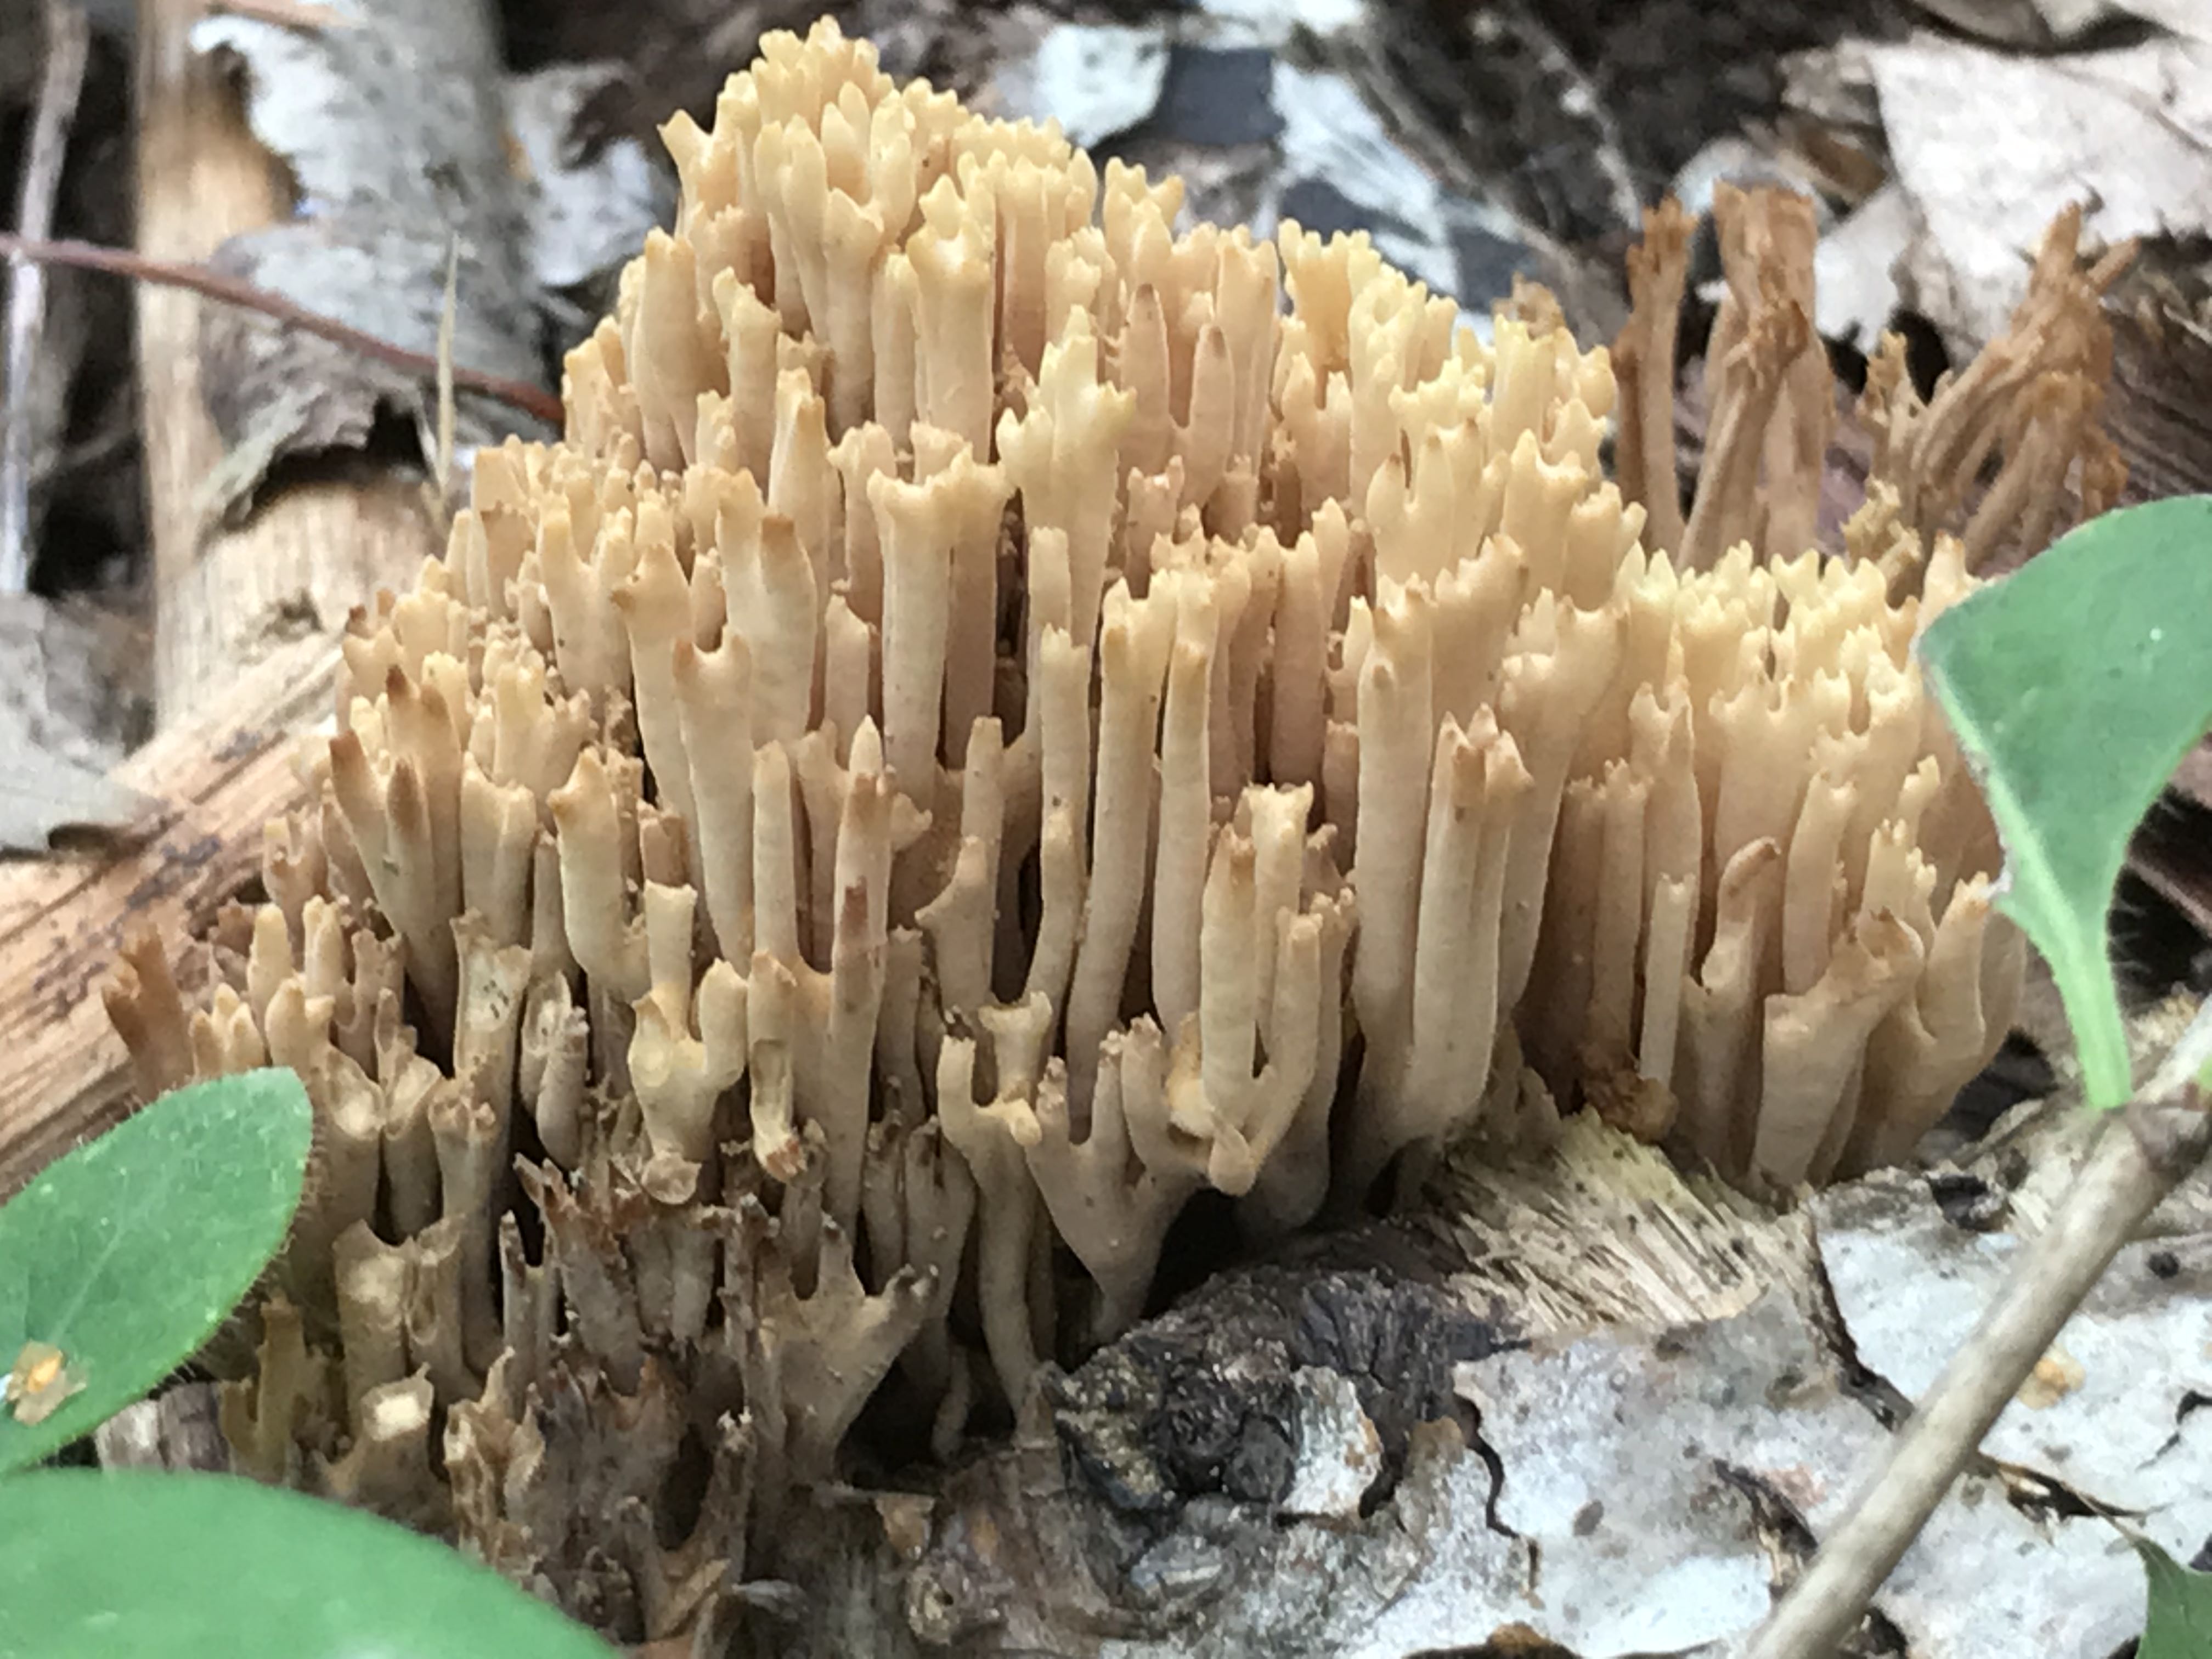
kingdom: Fungi
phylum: Basidiomycota
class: Agaricomycetes
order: Gomphales
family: Gomphaceae
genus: Ramaria
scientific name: Ramaria stricta
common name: rank koralsvamp
